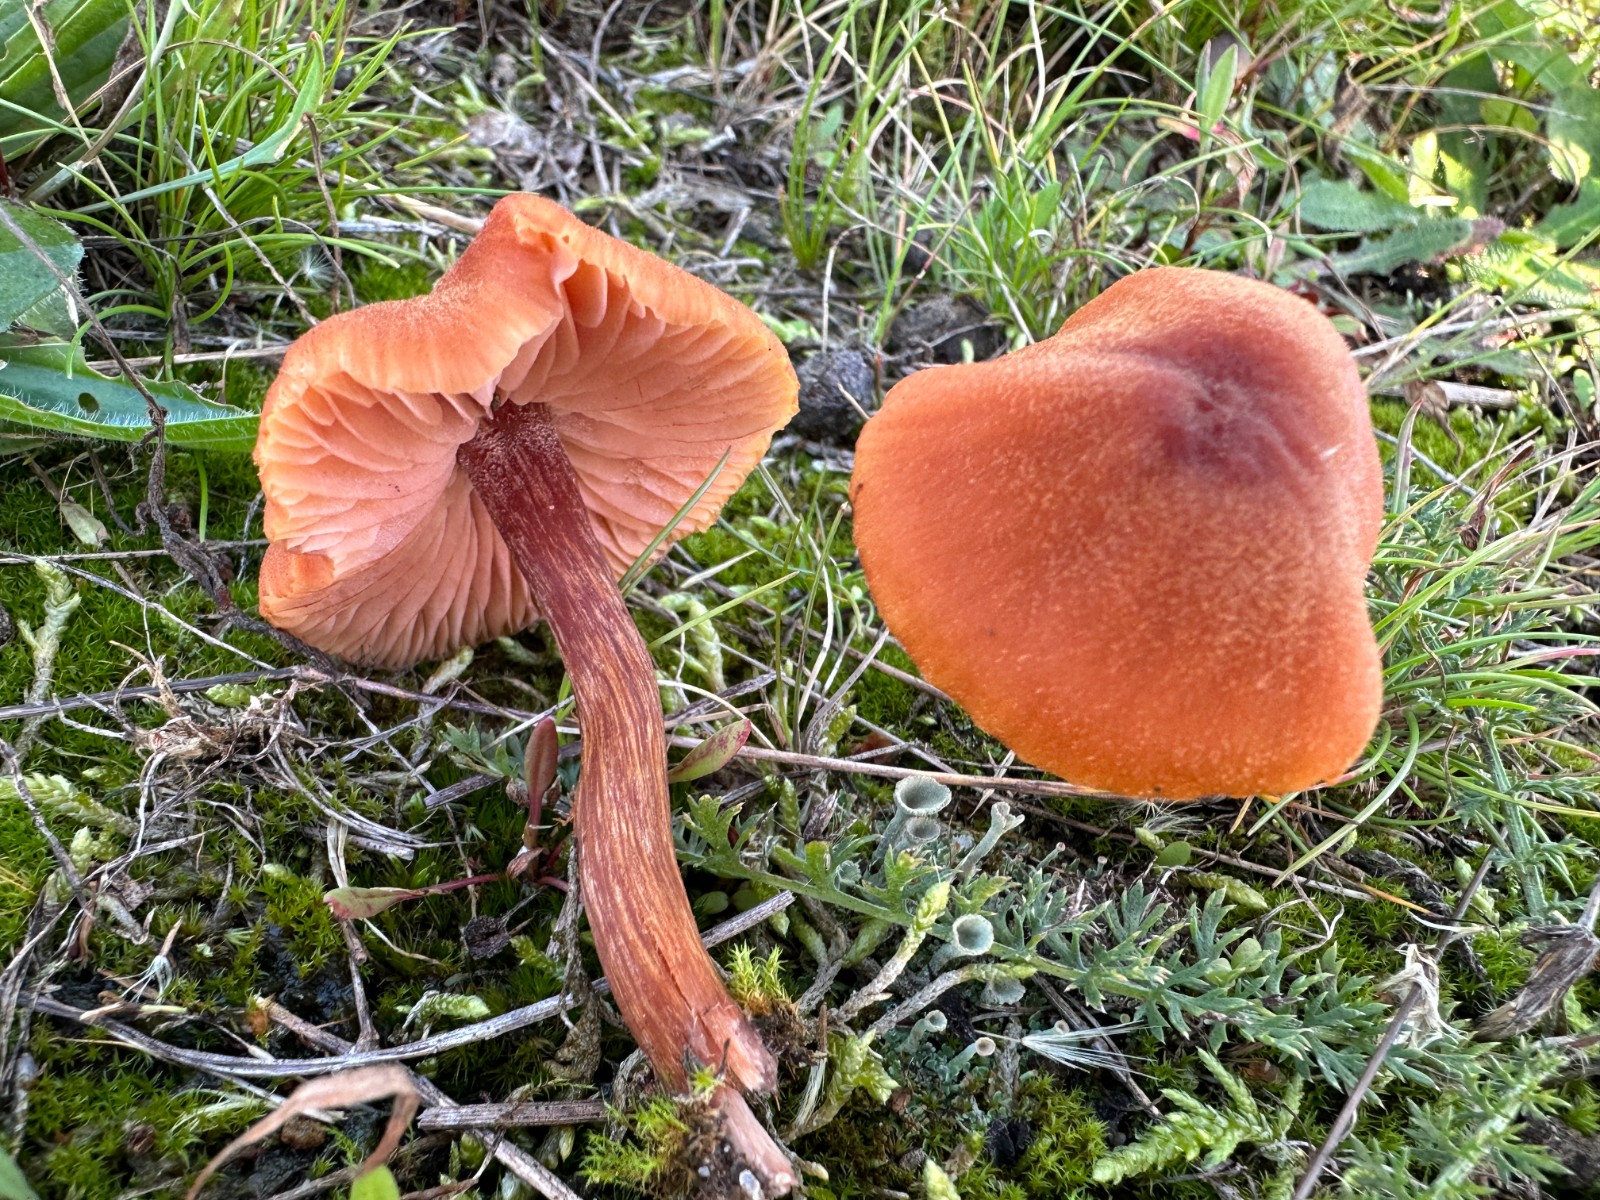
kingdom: Fungi
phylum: Basidiomycota
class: Agaricomycetes
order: Agaricales
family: Hydnangiaceae
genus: Laccaria
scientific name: Laccaria proxima
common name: stor ametysthat
